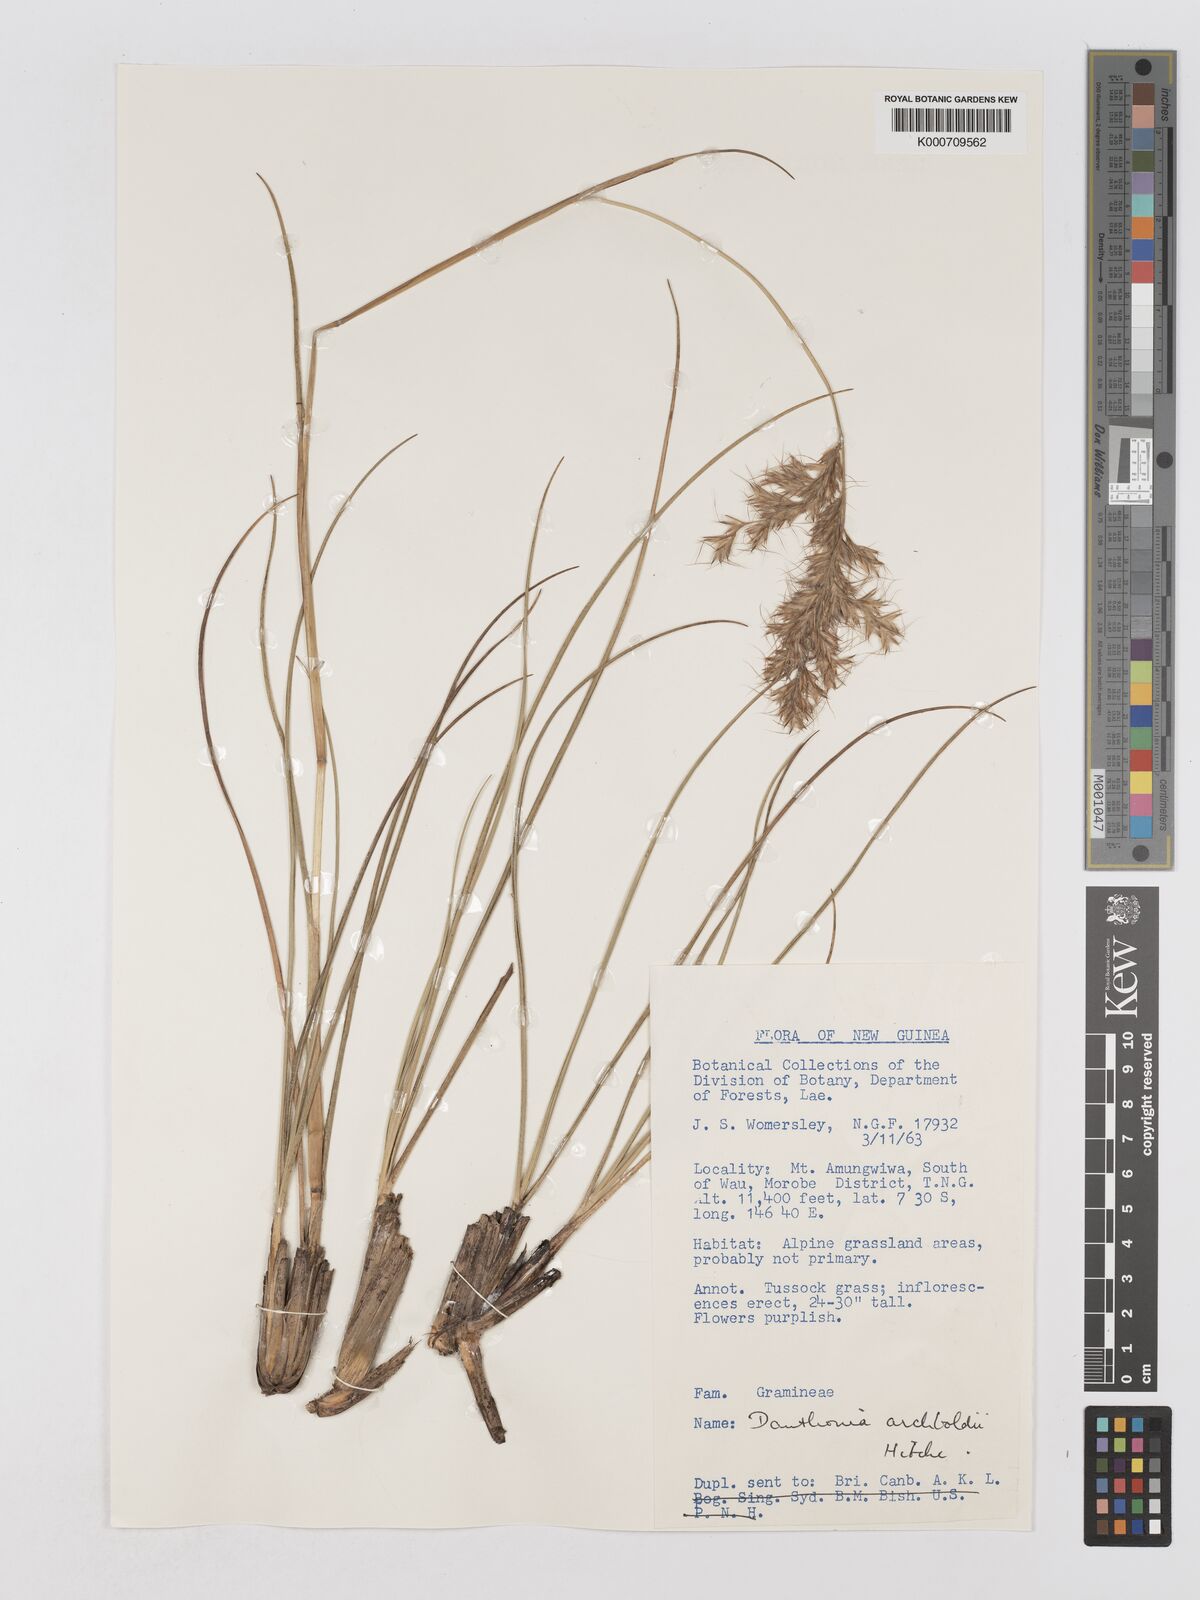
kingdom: Plantae
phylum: Tracheophyta
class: Liliopsida
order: Poales
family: Poaceae
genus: Chimaerochloa
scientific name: Chimaerochloa archboldii
